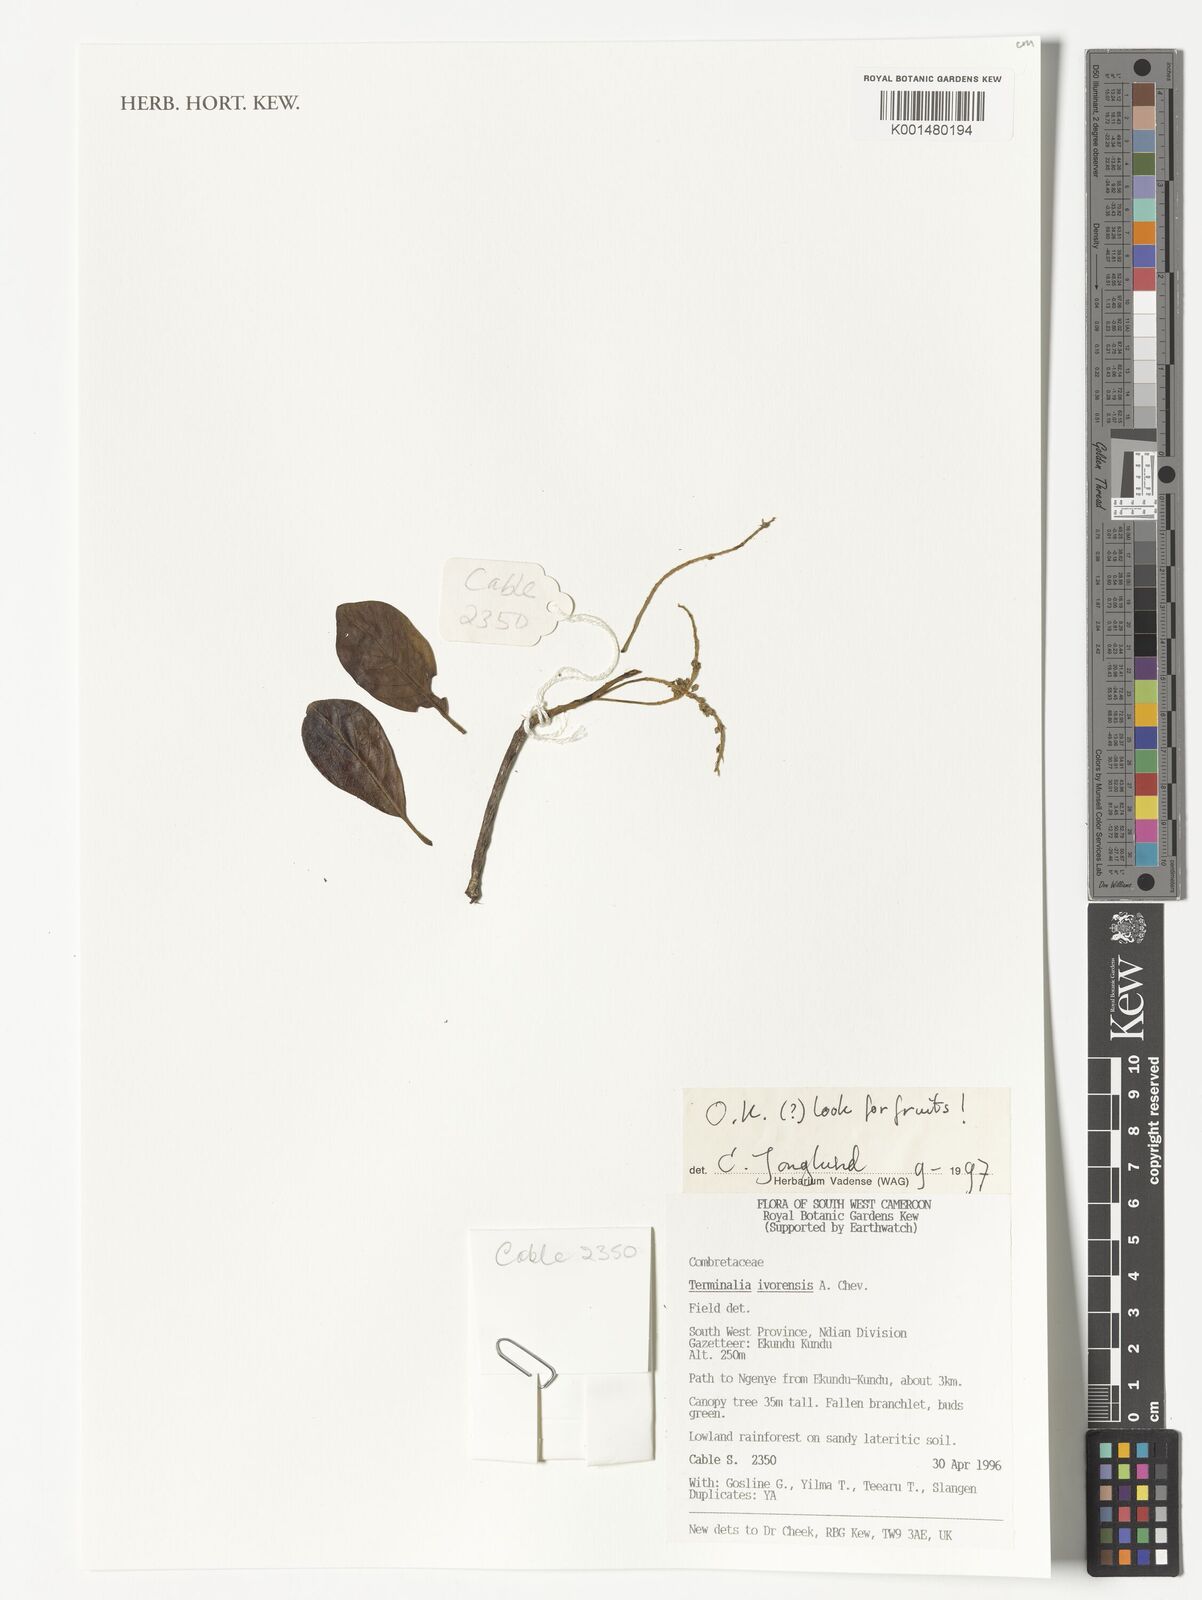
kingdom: Plantae
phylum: Tracheophyta
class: Magnoliopsida
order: Myrtales
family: Combretaceae
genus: Terminalia
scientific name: Terminalia ivorensis
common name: Black afara
